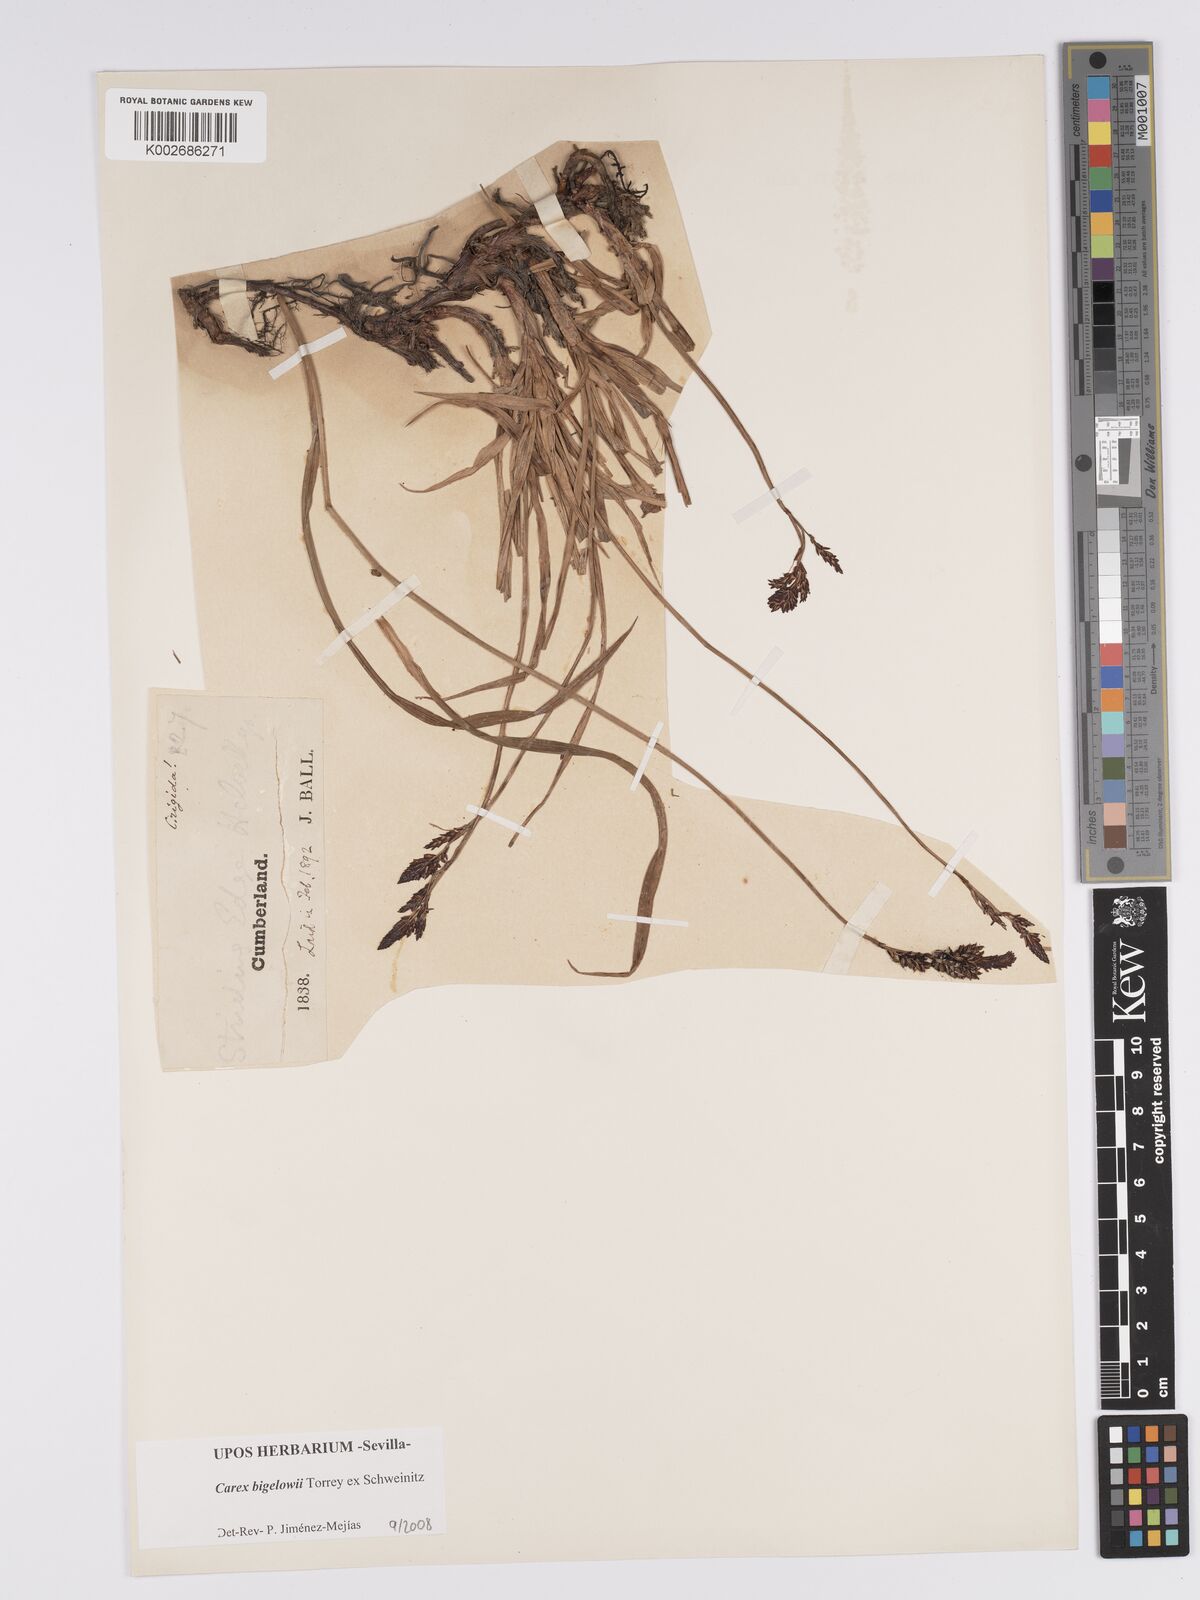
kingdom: Plantae
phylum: Tracheophyta
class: Liliopsida
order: Poales
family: Cyperaceae
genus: Carex
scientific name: Carex bigelowii
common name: Stiff sedge
